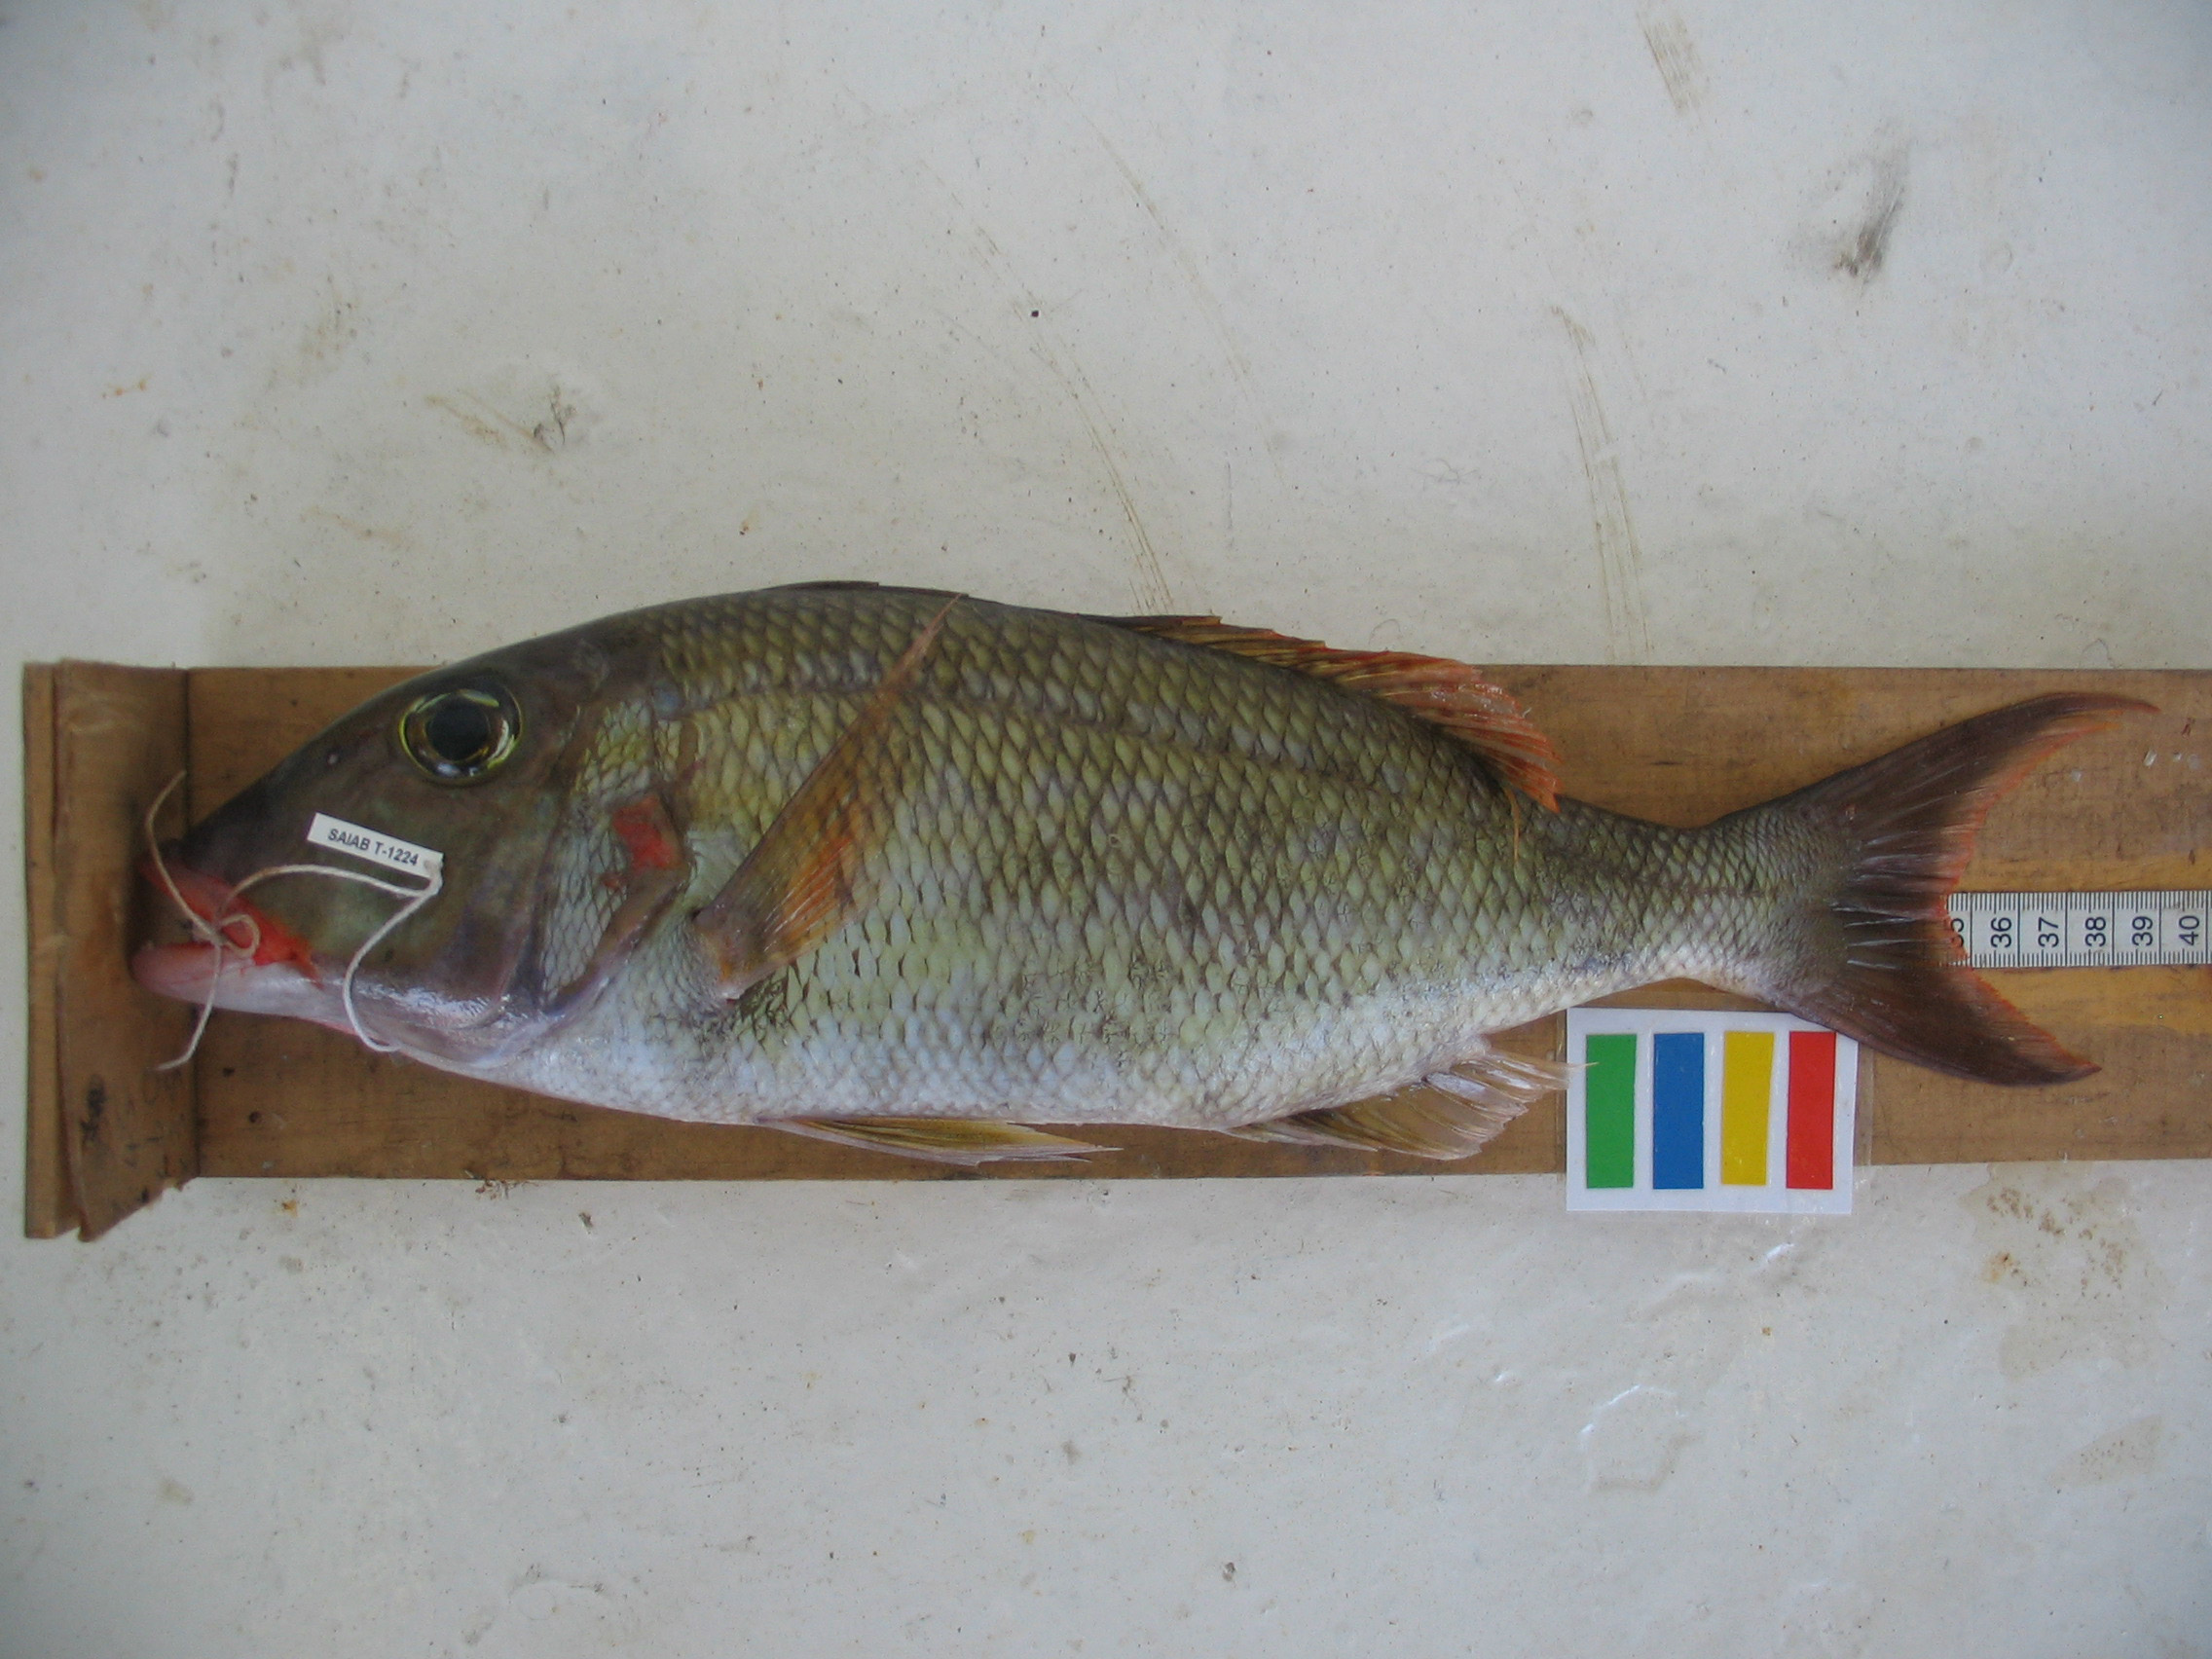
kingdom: Animalia
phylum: Chordata
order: Perciformes
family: Lethrinidae
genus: Lethrinus
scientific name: Lethrinus rubrioperculatus
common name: Spotcheek emperor
